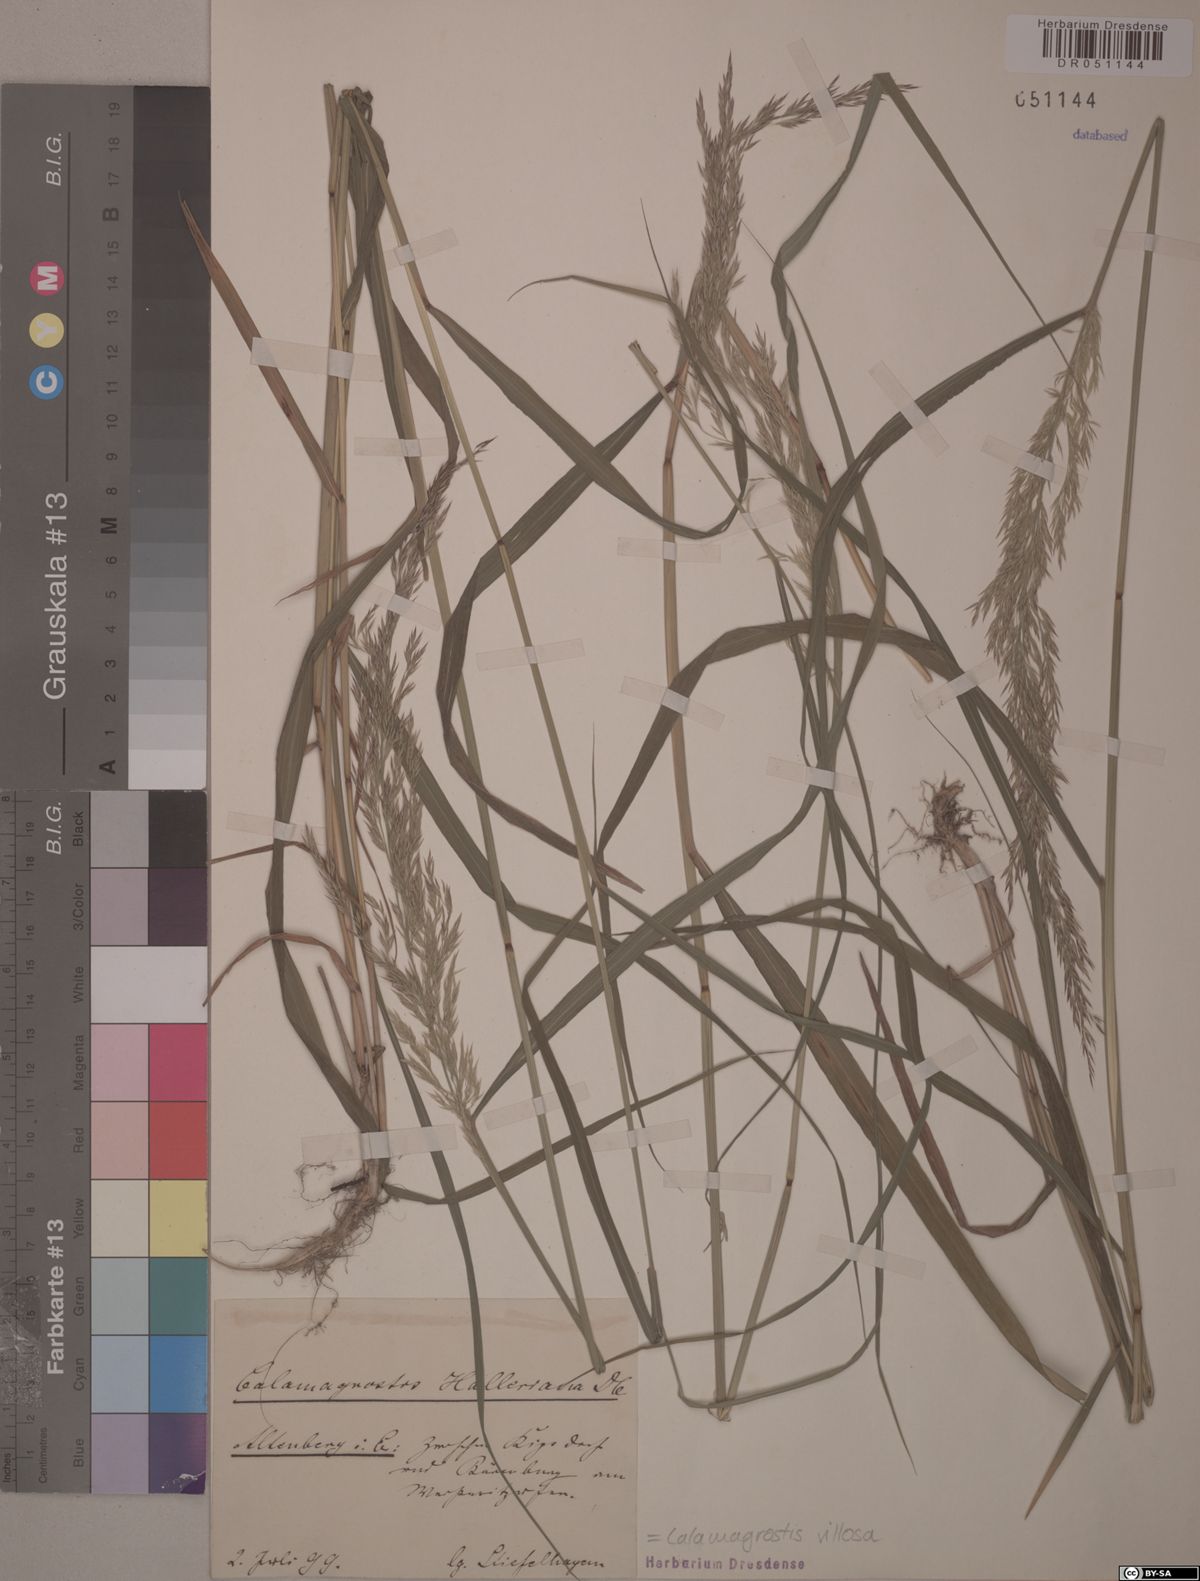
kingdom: Plantae
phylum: Tracheophyta
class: Liliopsida
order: Poales
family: Poaceae
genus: Calamagrostis
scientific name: Calamagrostis villosa
